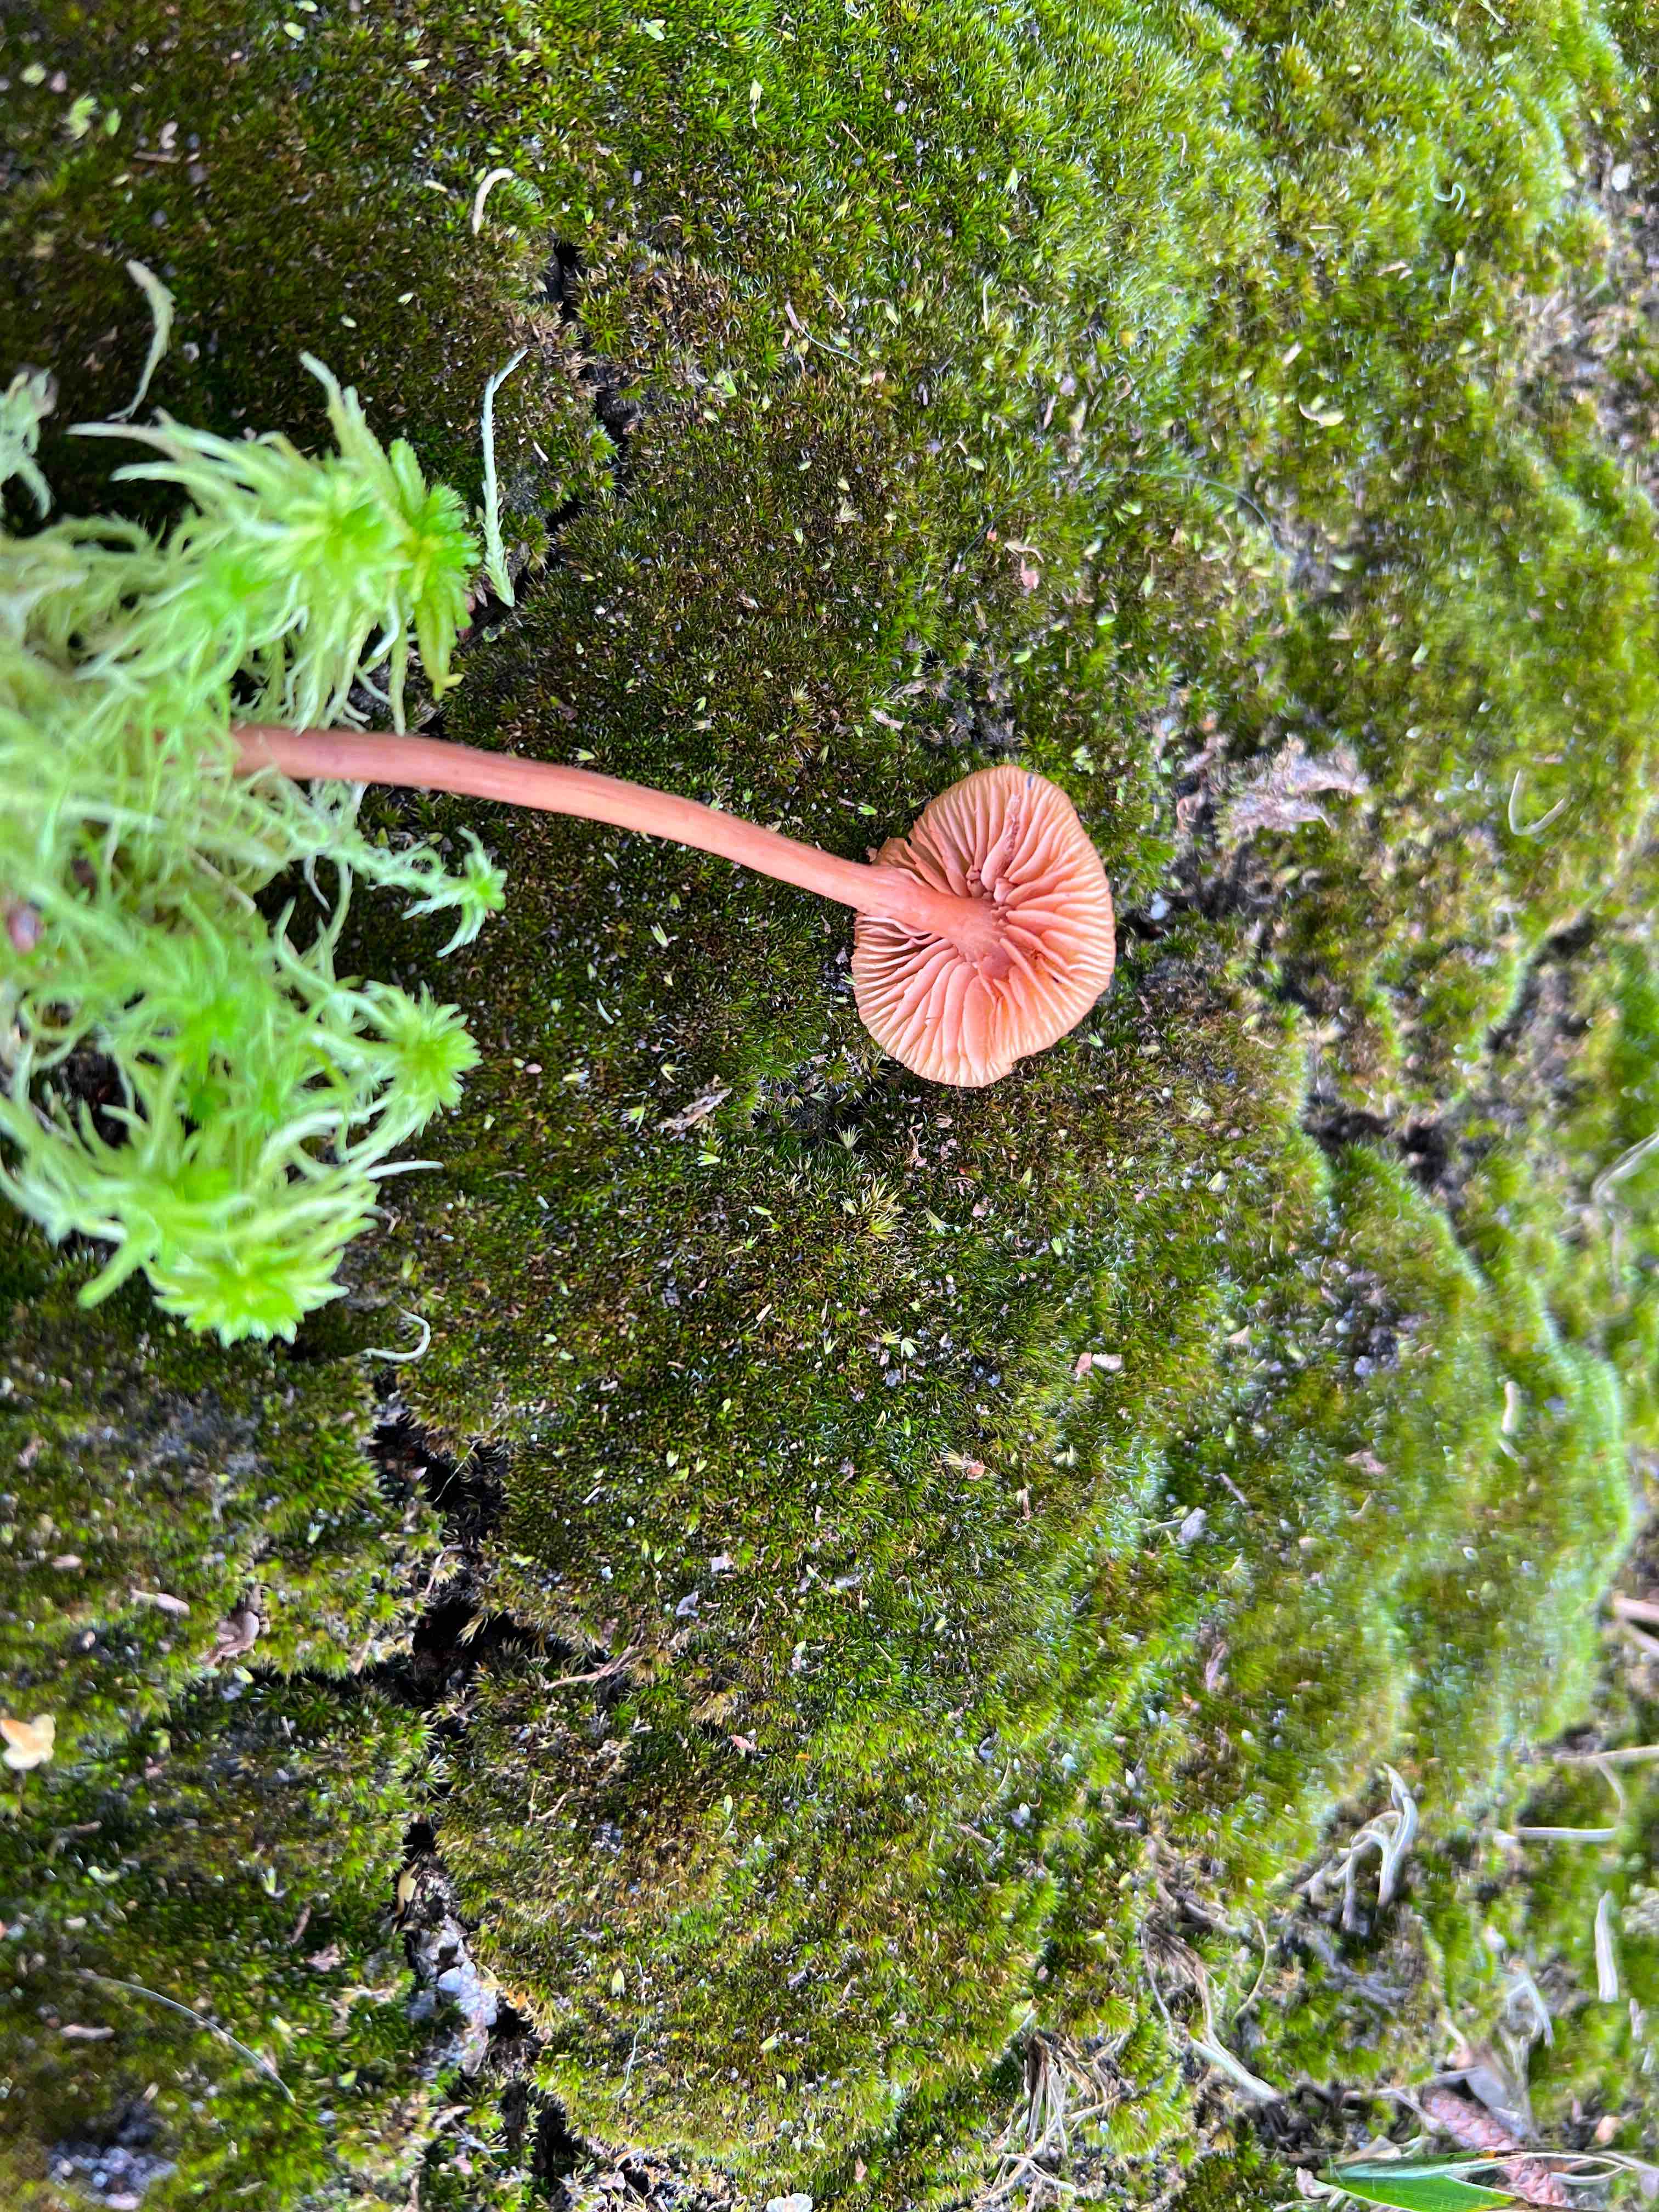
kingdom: Fungi
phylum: Basidiomycota
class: Agaricomycetes
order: Agaricales
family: Hydnangiaceae
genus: Laccaria
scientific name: Laccaria laccata
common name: rød ametysthat
